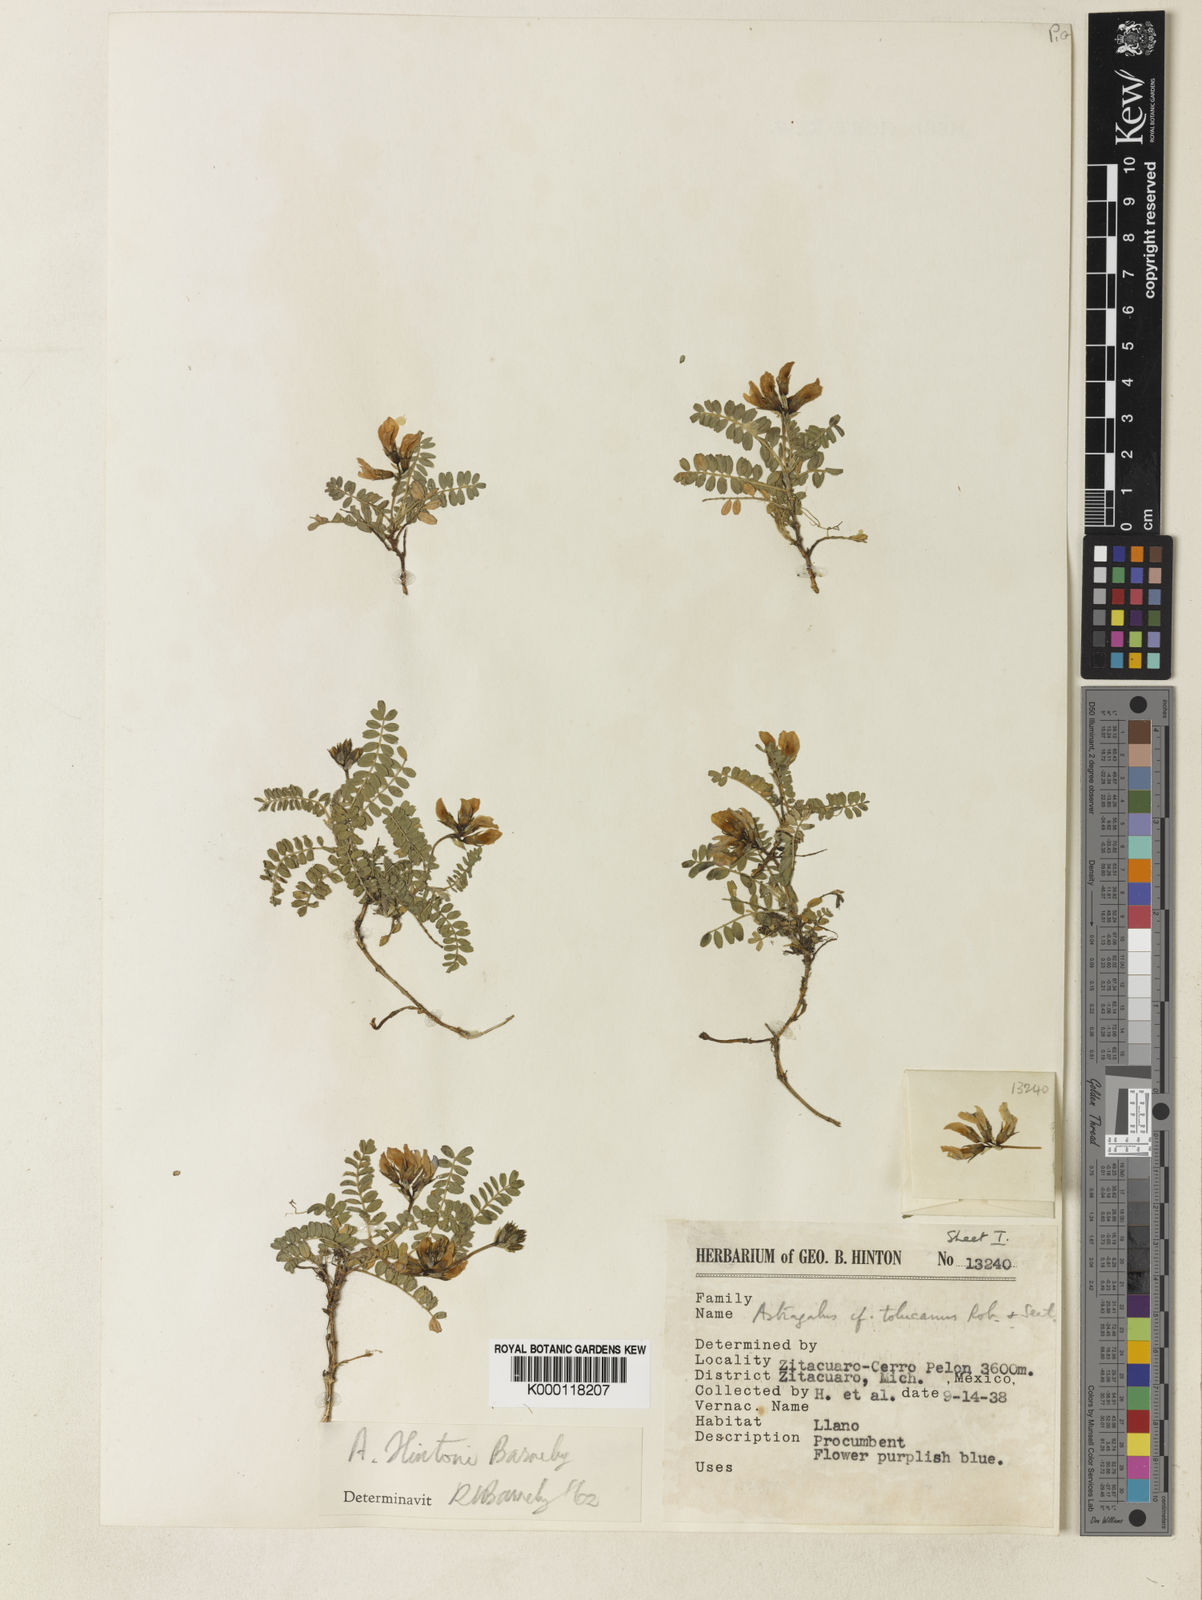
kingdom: Plantae
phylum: Tracheophyta
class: Magnoliopsida
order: Fabales
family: Fabaceae
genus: Astragalus
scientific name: Astragalus hintonii
